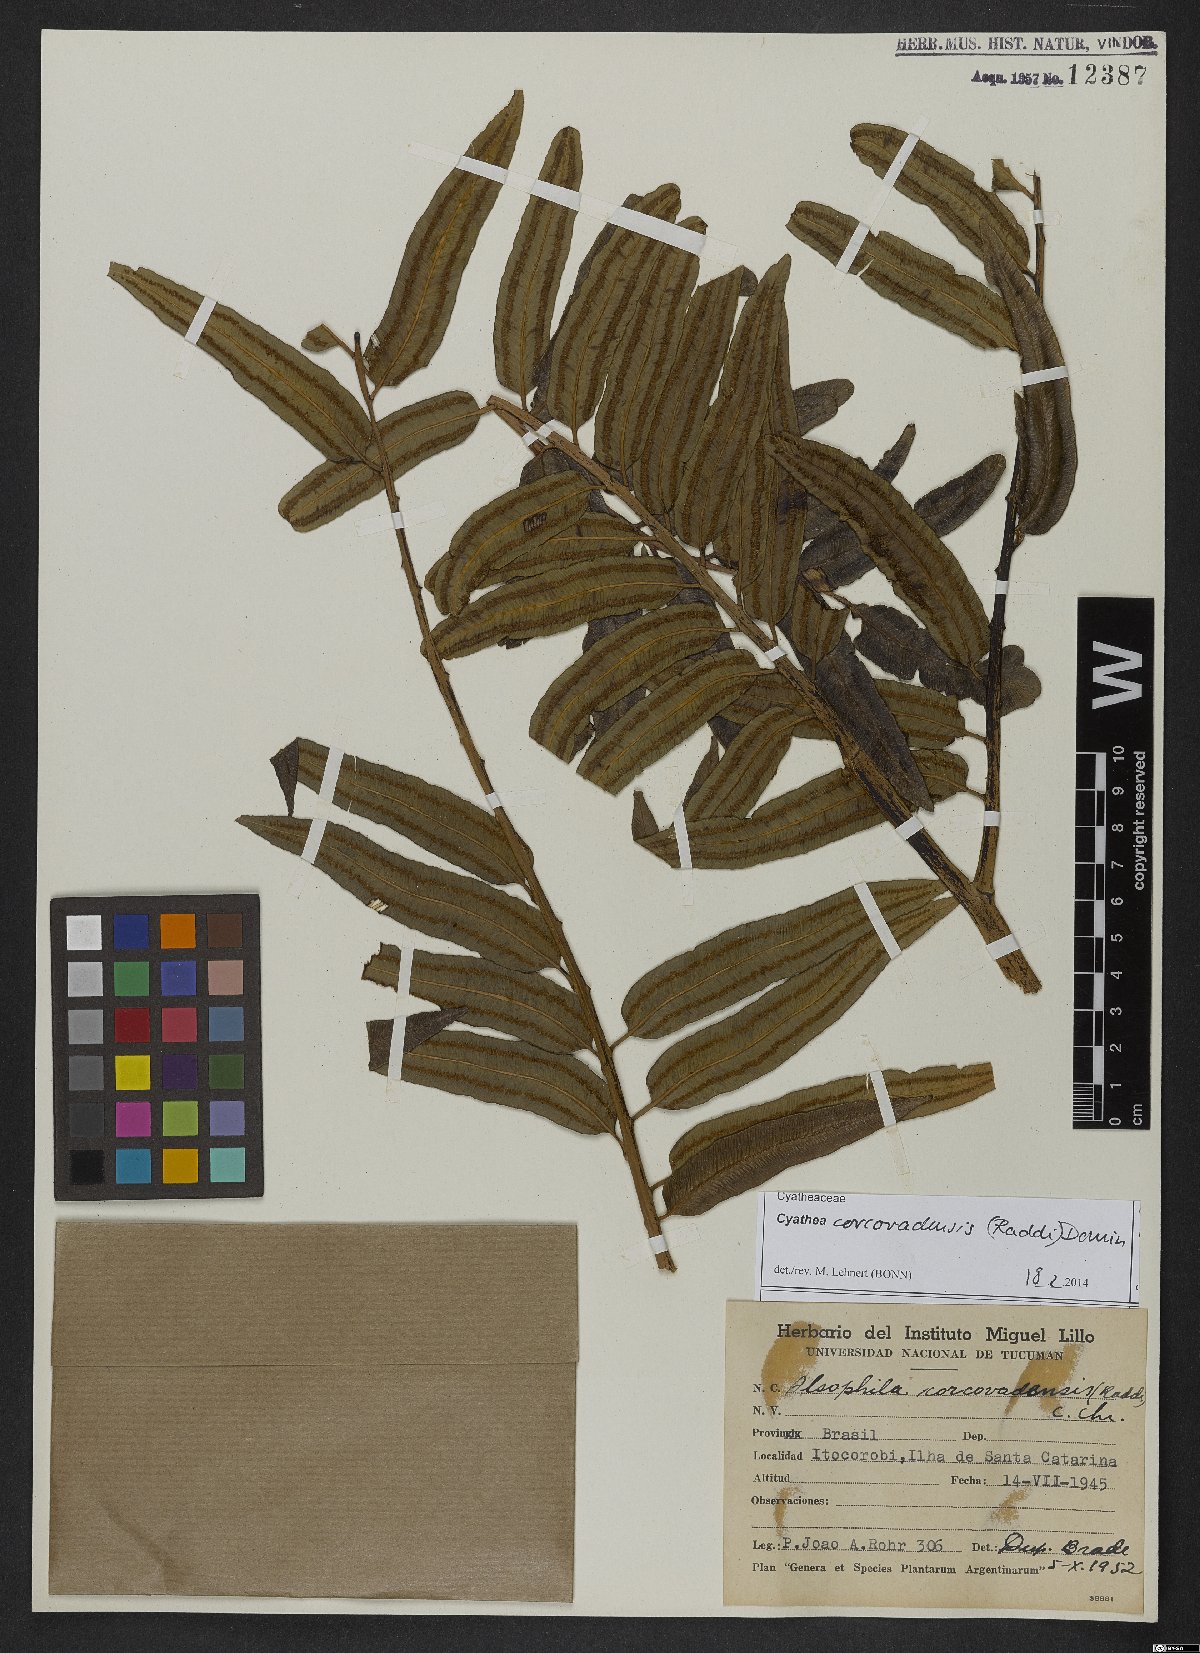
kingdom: Plantae
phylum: Tracheophyta
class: Polypodiopsida
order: Cyatheales
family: Cyatheaceae
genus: Cyathea
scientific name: Cyathea corcovadensis
